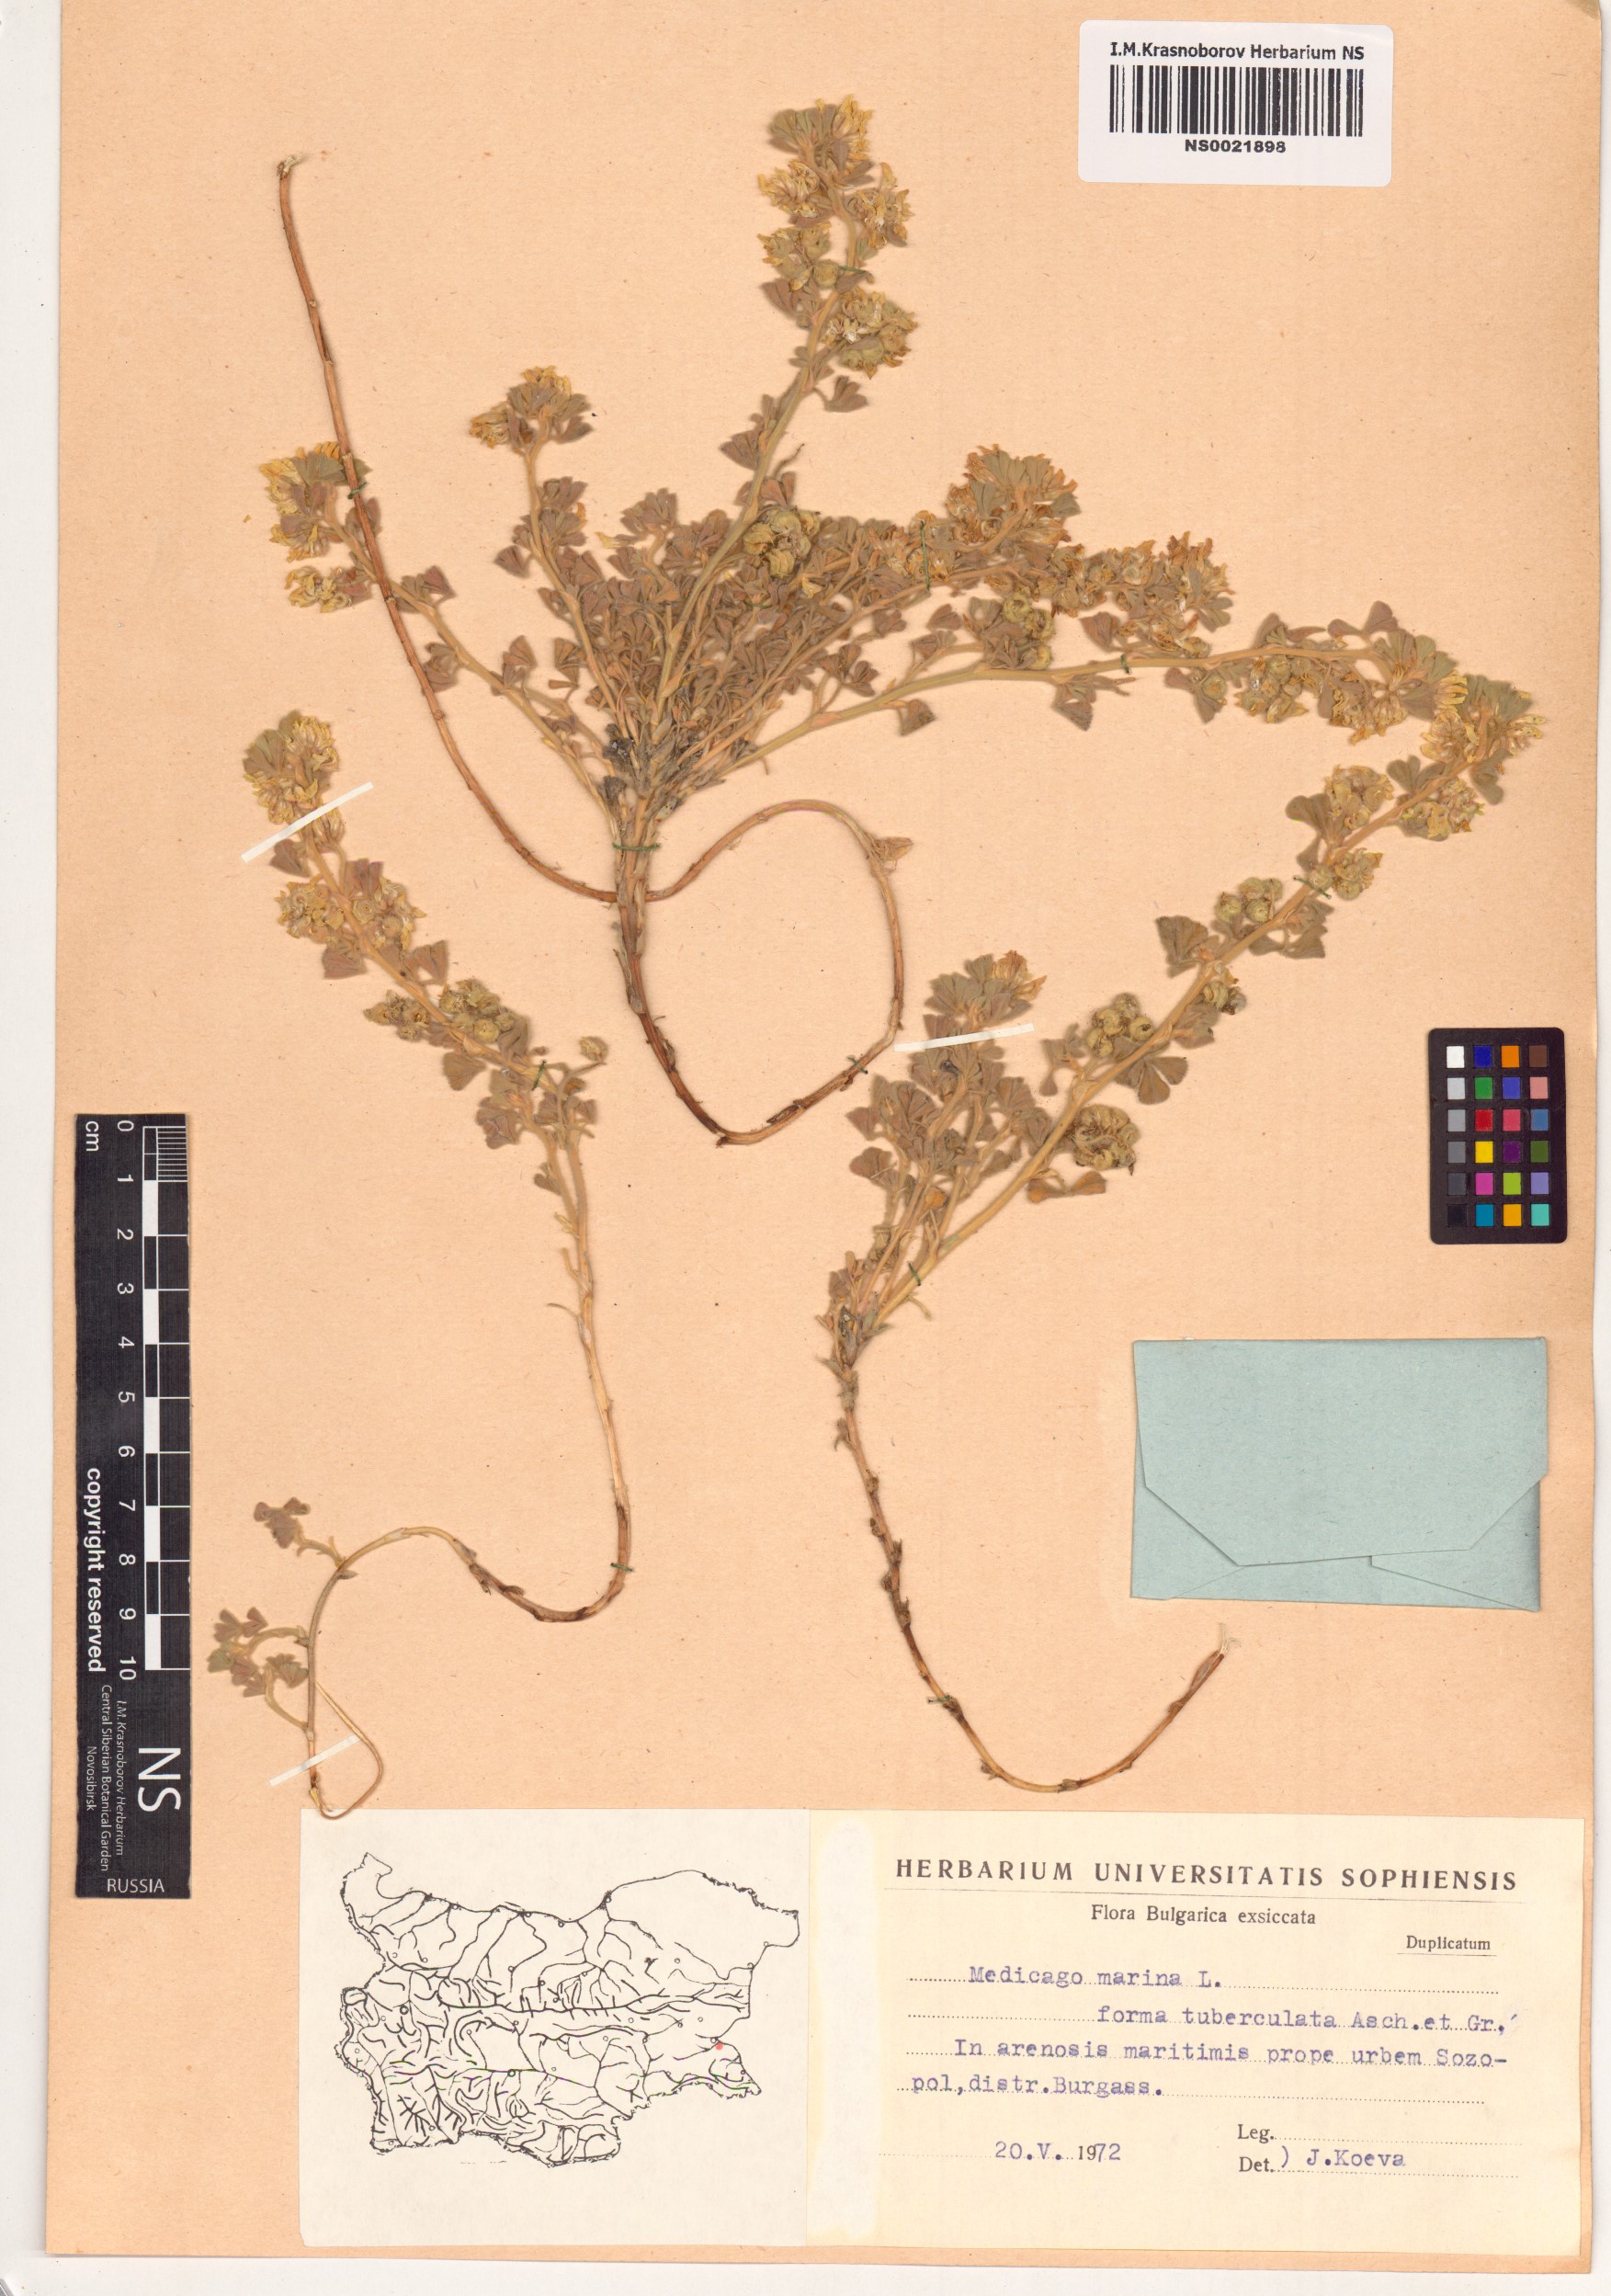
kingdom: Plantae
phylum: Tracheophyta
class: Magnoliopsida
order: Fabales
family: Fabaceae
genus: Medicago
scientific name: Medicago marina
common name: Sea medick
